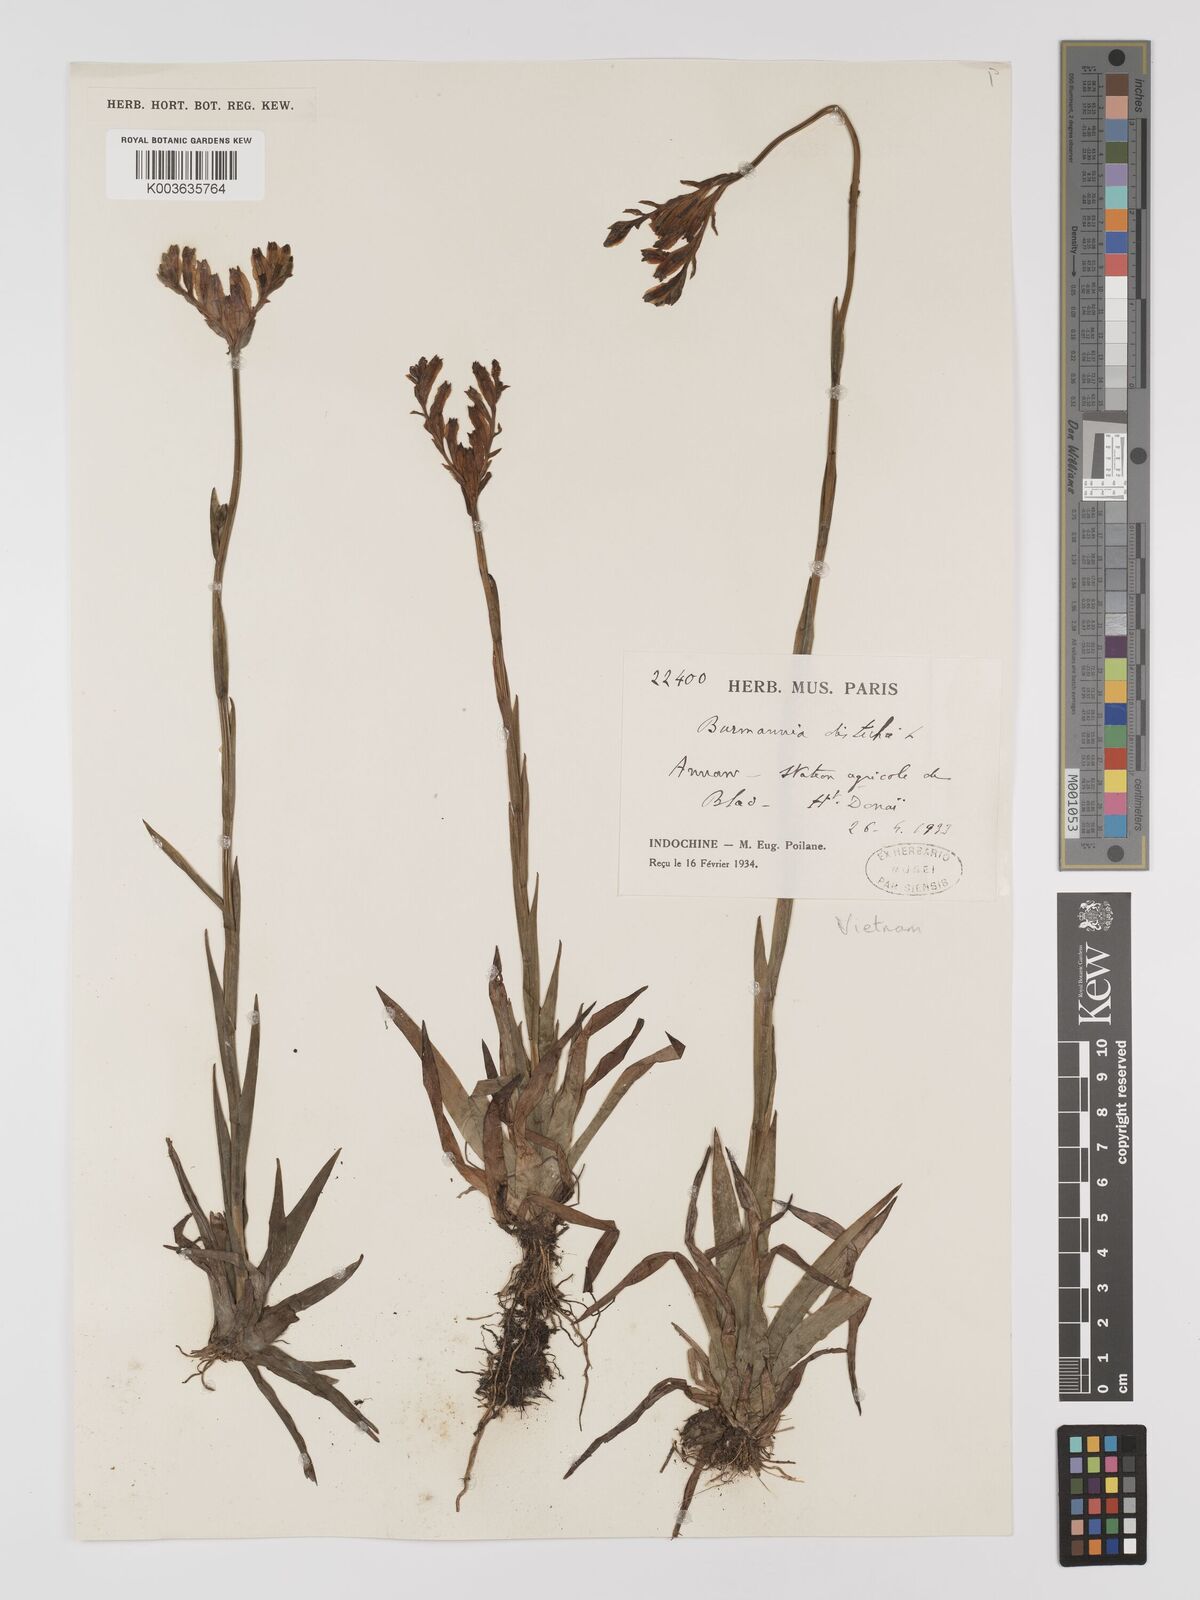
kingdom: Plantae
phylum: Tracheophyta
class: Liliopsida
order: Dioscoreales
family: Burmanniaceae
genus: Burmannia
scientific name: Burmannia disticha
